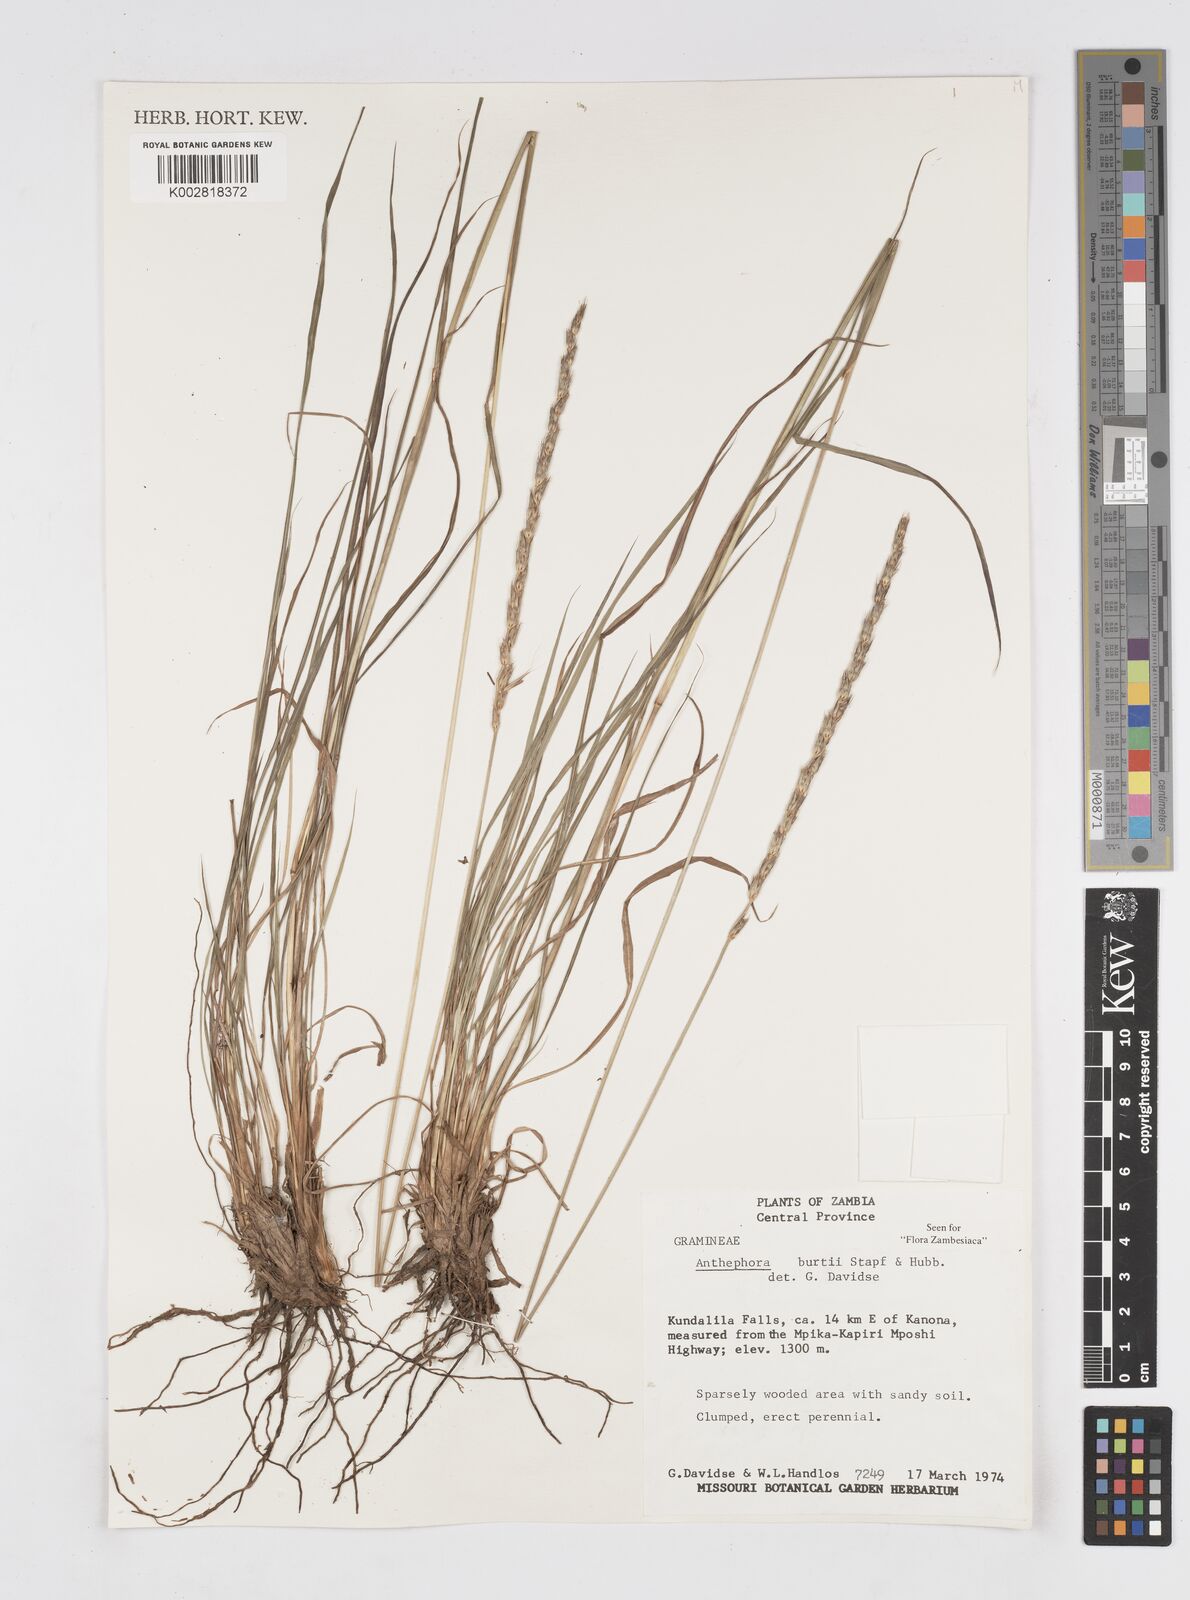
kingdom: Plantae
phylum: Tracheophyta
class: Liliopsida
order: Poales
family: Poaceae
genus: Anthephora
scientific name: Anthephora elongata
